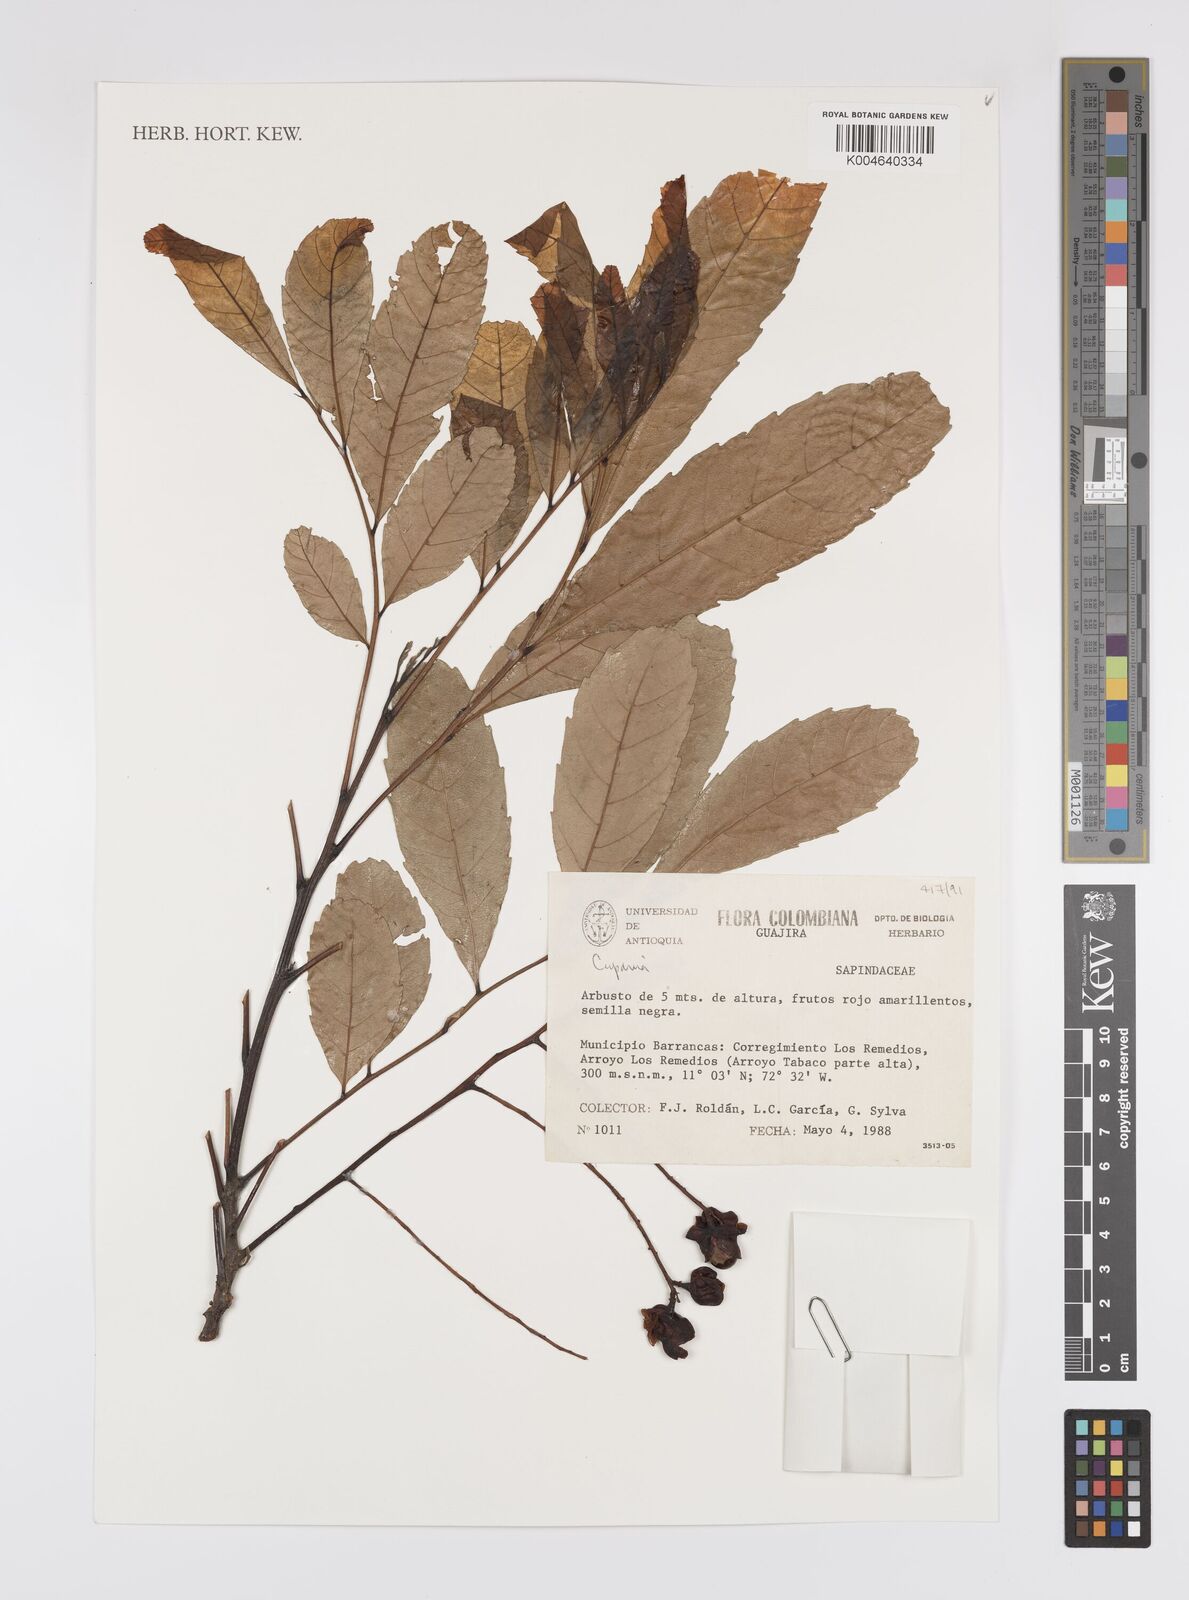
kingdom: Plantae
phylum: Tracheophyta
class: Magnoliopsida
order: Sapindales
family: Sapindaceae
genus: Cupania
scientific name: Cupania
